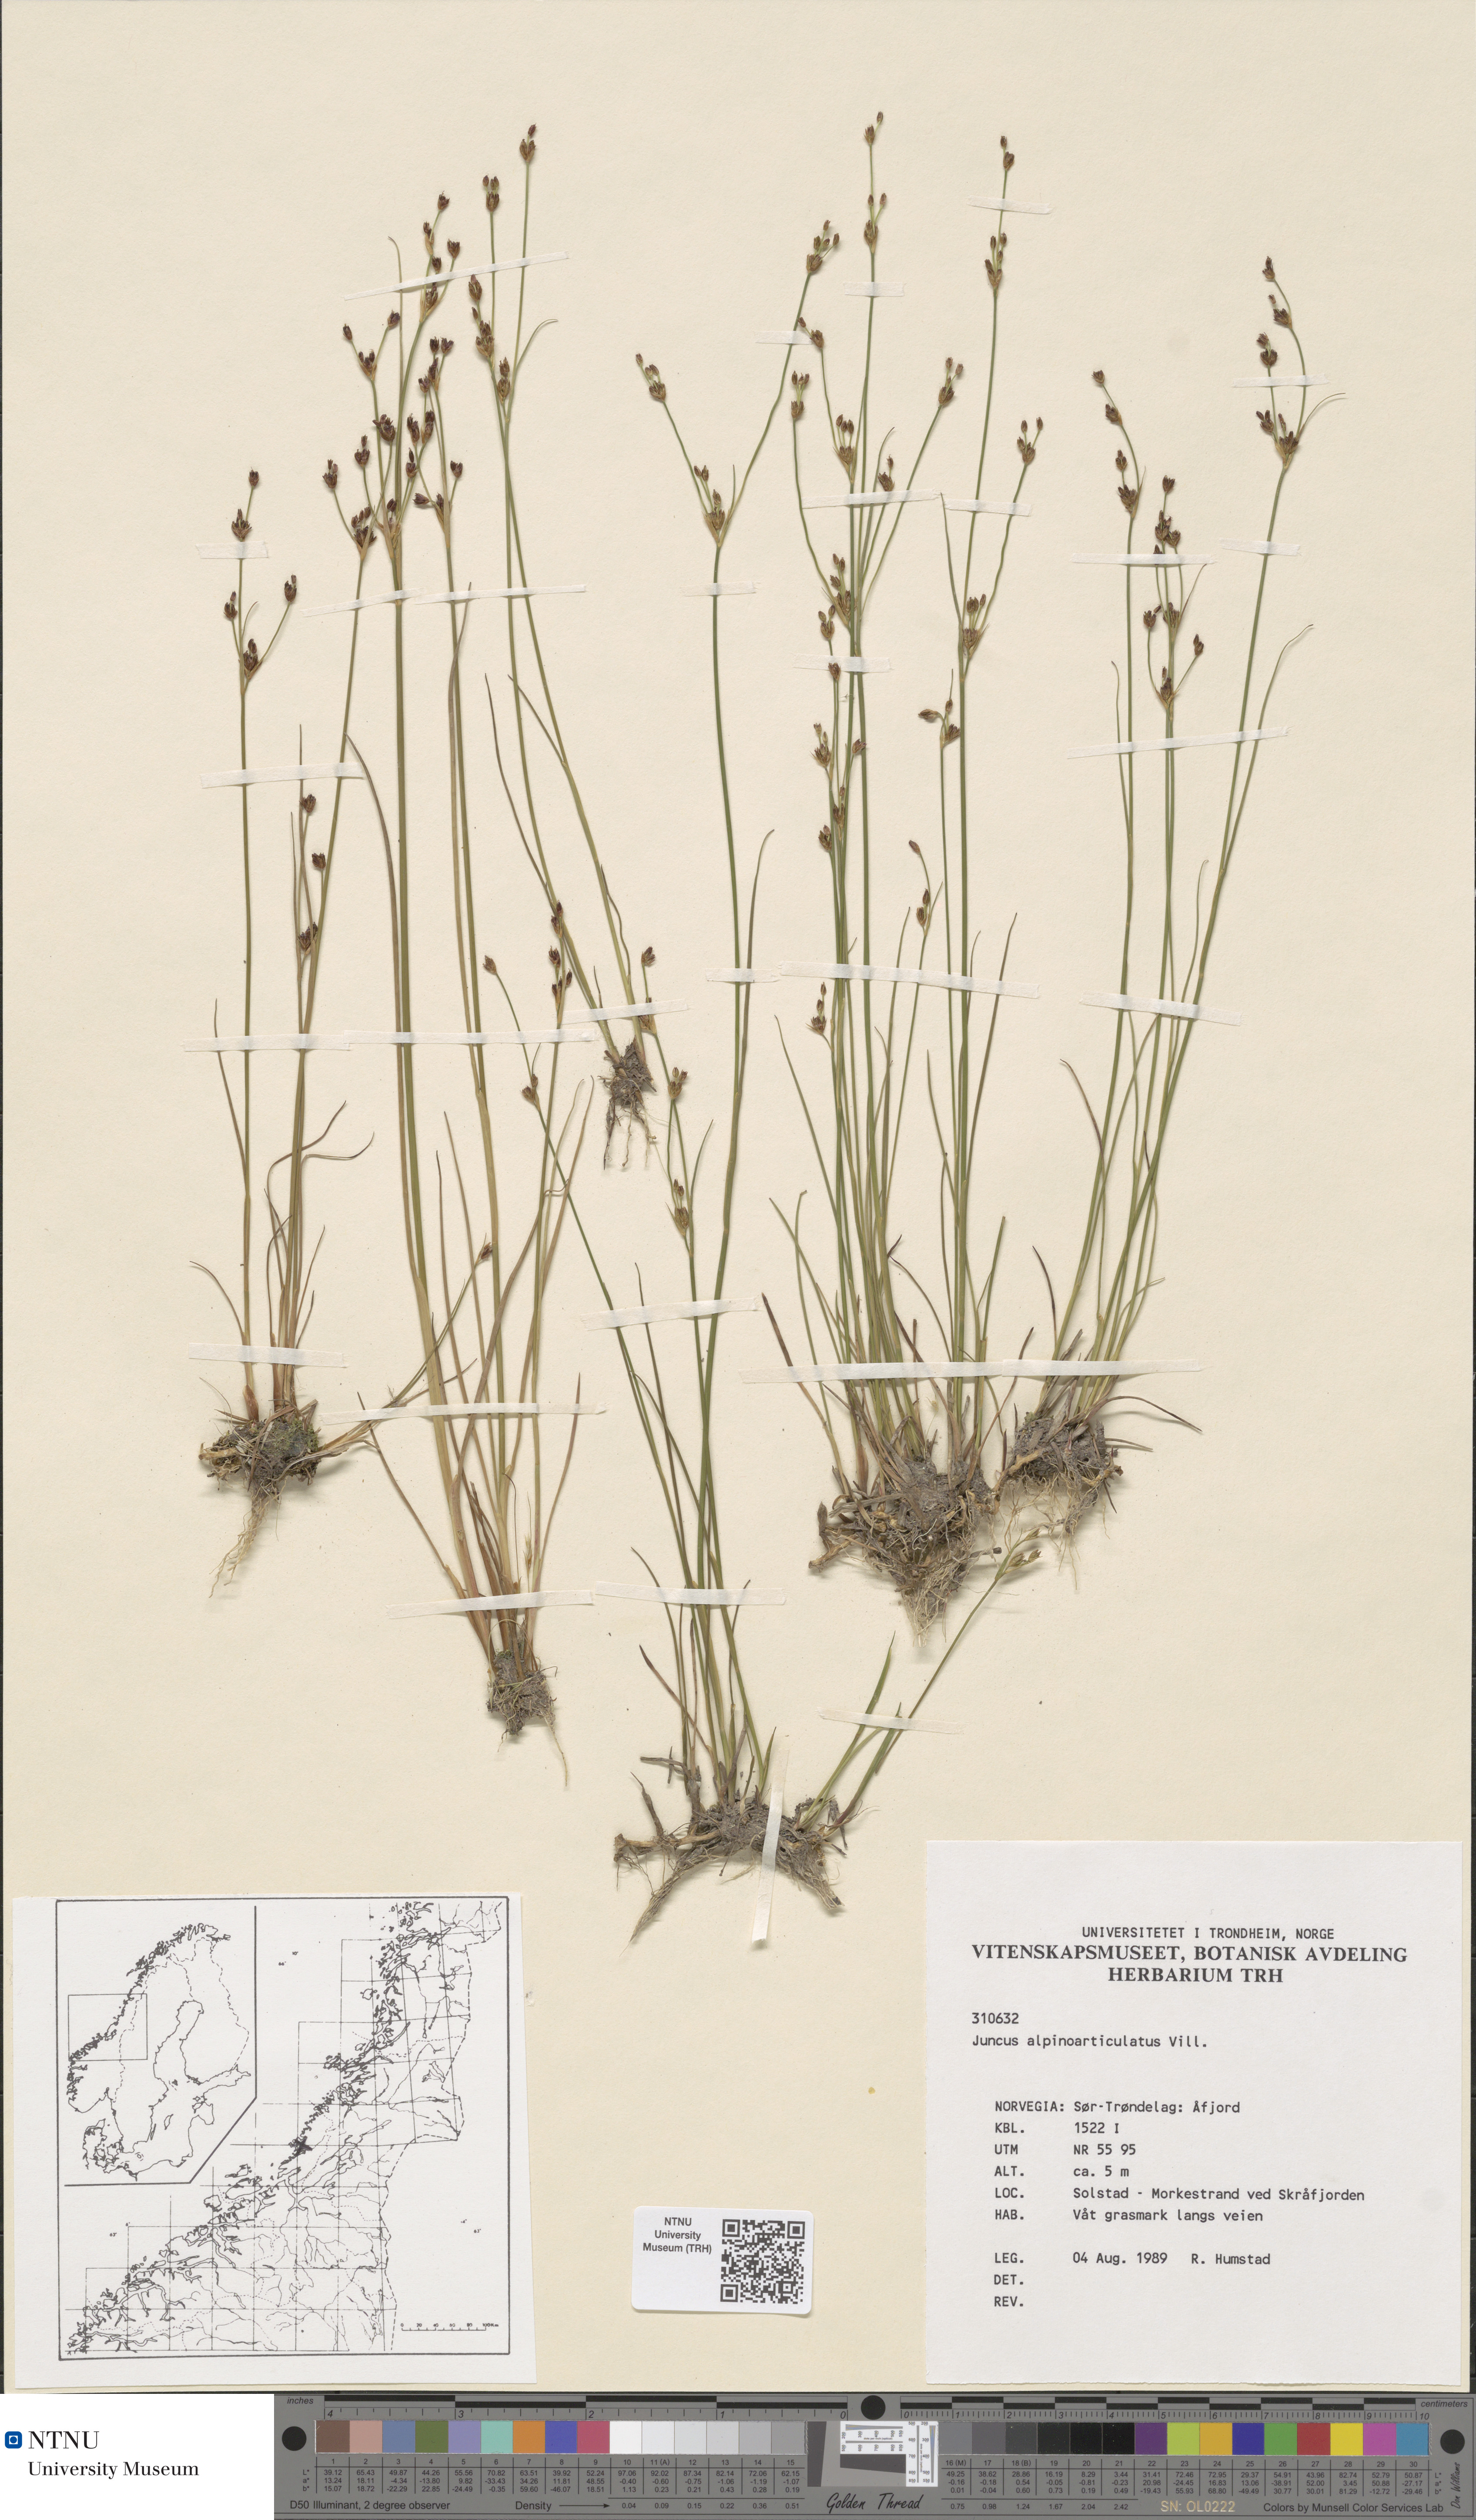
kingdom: Plantae
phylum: Tracheophyta
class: Liliopsida
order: Poales
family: Juncaceae
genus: Juncus
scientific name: Juncus alpinoarticulatus
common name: Alpine rush
